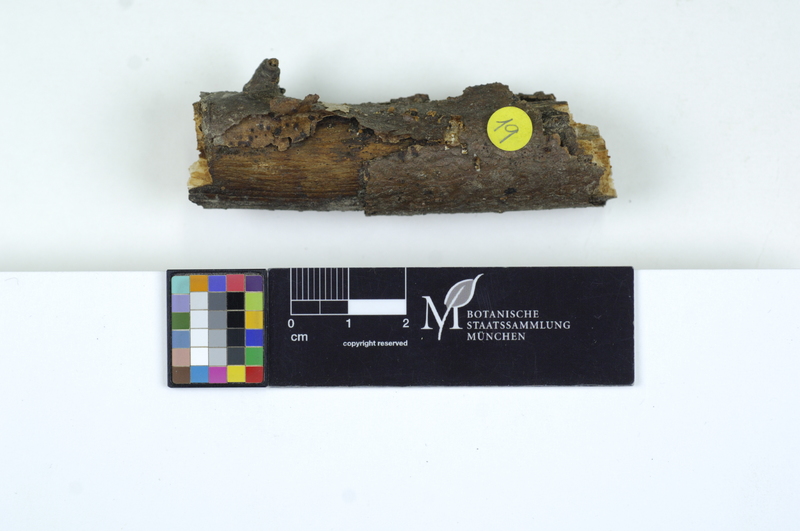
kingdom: Fungi
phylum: Basidiomycota
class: Dacrymycetes
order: Dacrymycetales
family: Dacrymycetaceae
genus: Dacrymyces
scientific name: Dacrymyces capitatus
